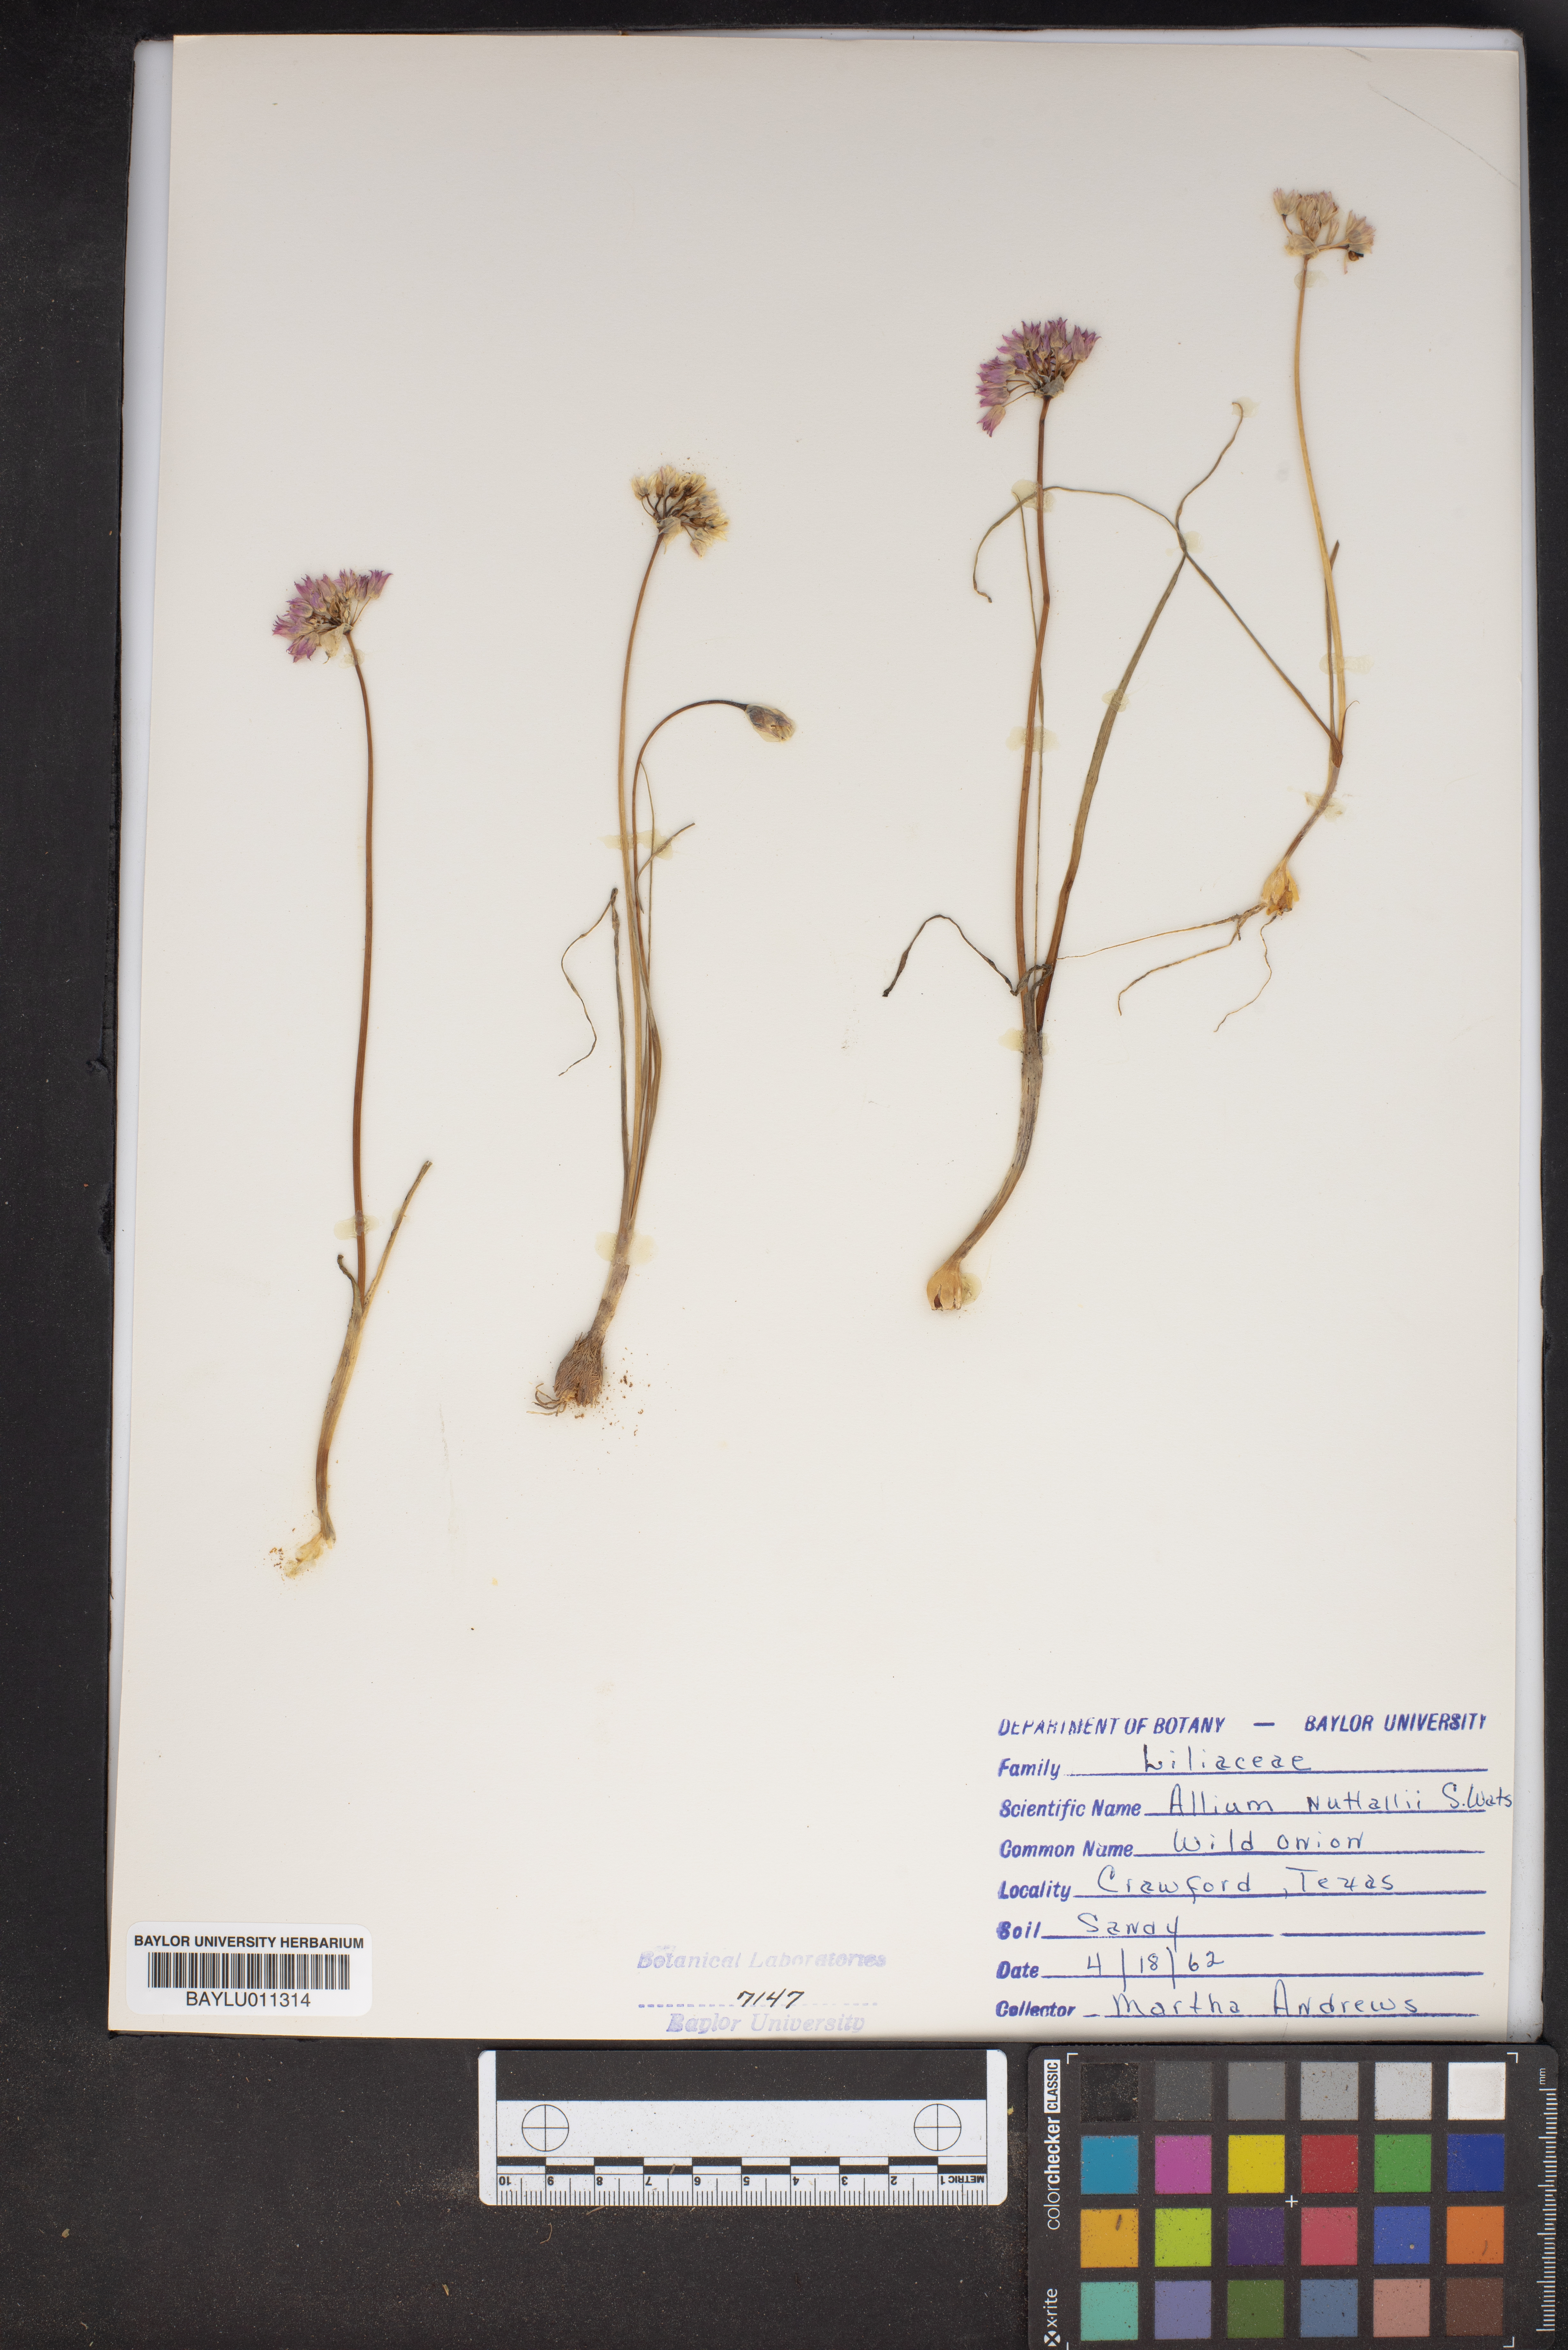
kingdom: Plantae
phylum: Tracheophyta
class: Liliopsida
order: Asparagales
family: Amaryllidaceae
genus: Allium
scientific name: Allium drummondii
